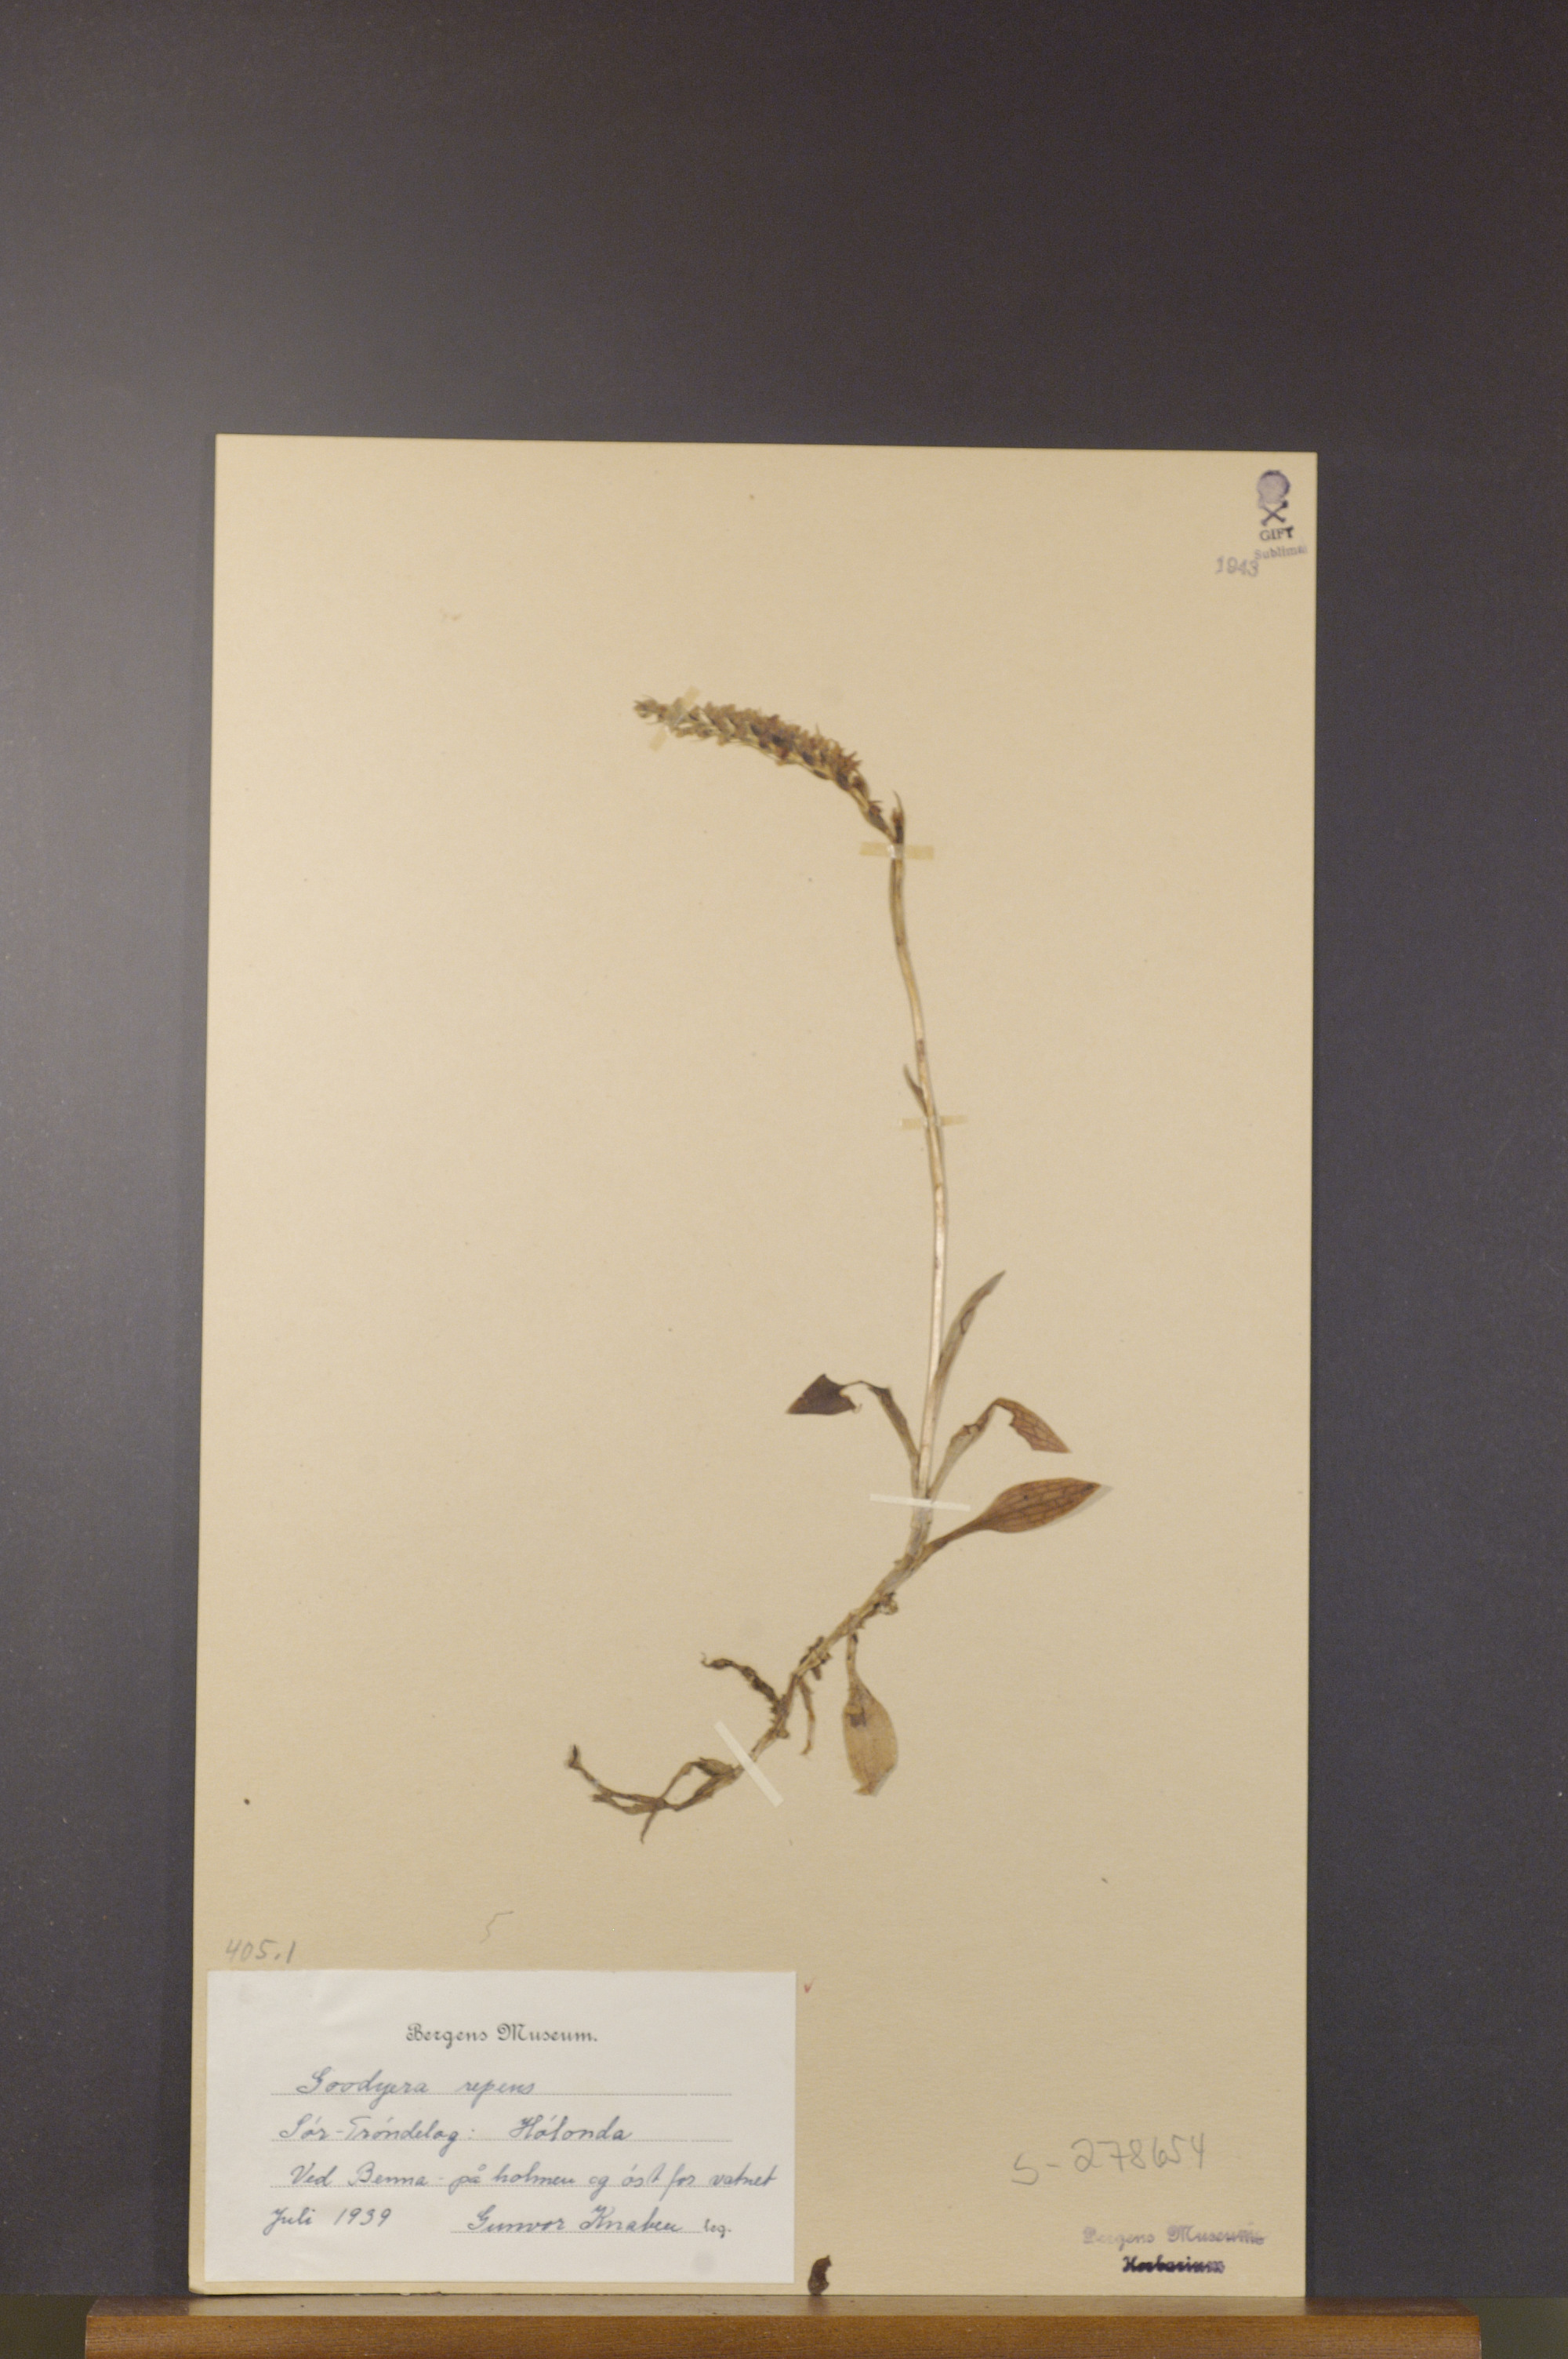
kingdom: Plantae
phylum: Tracheophyta
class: Liliopsida
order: Asparagales
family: Orchidaceae
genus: Goodyera
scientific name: Goodyera repens
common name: Creeping lady's-tresses
